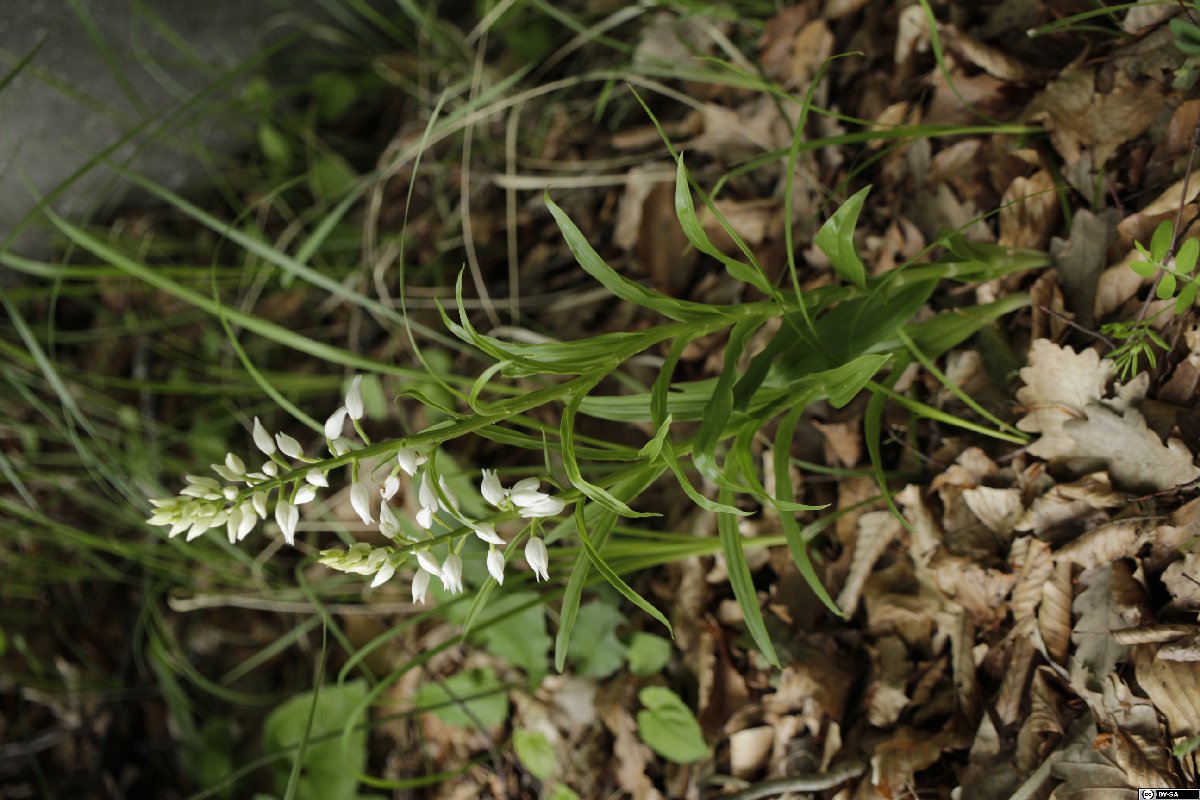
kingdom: Plantae
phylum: Tracheophyta
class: Liliopsida
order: Asparagales
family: Orchidaceae
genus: Cephalanthera
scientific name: Cephalanthera longifolia
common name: Narrow-leaved helleborine
